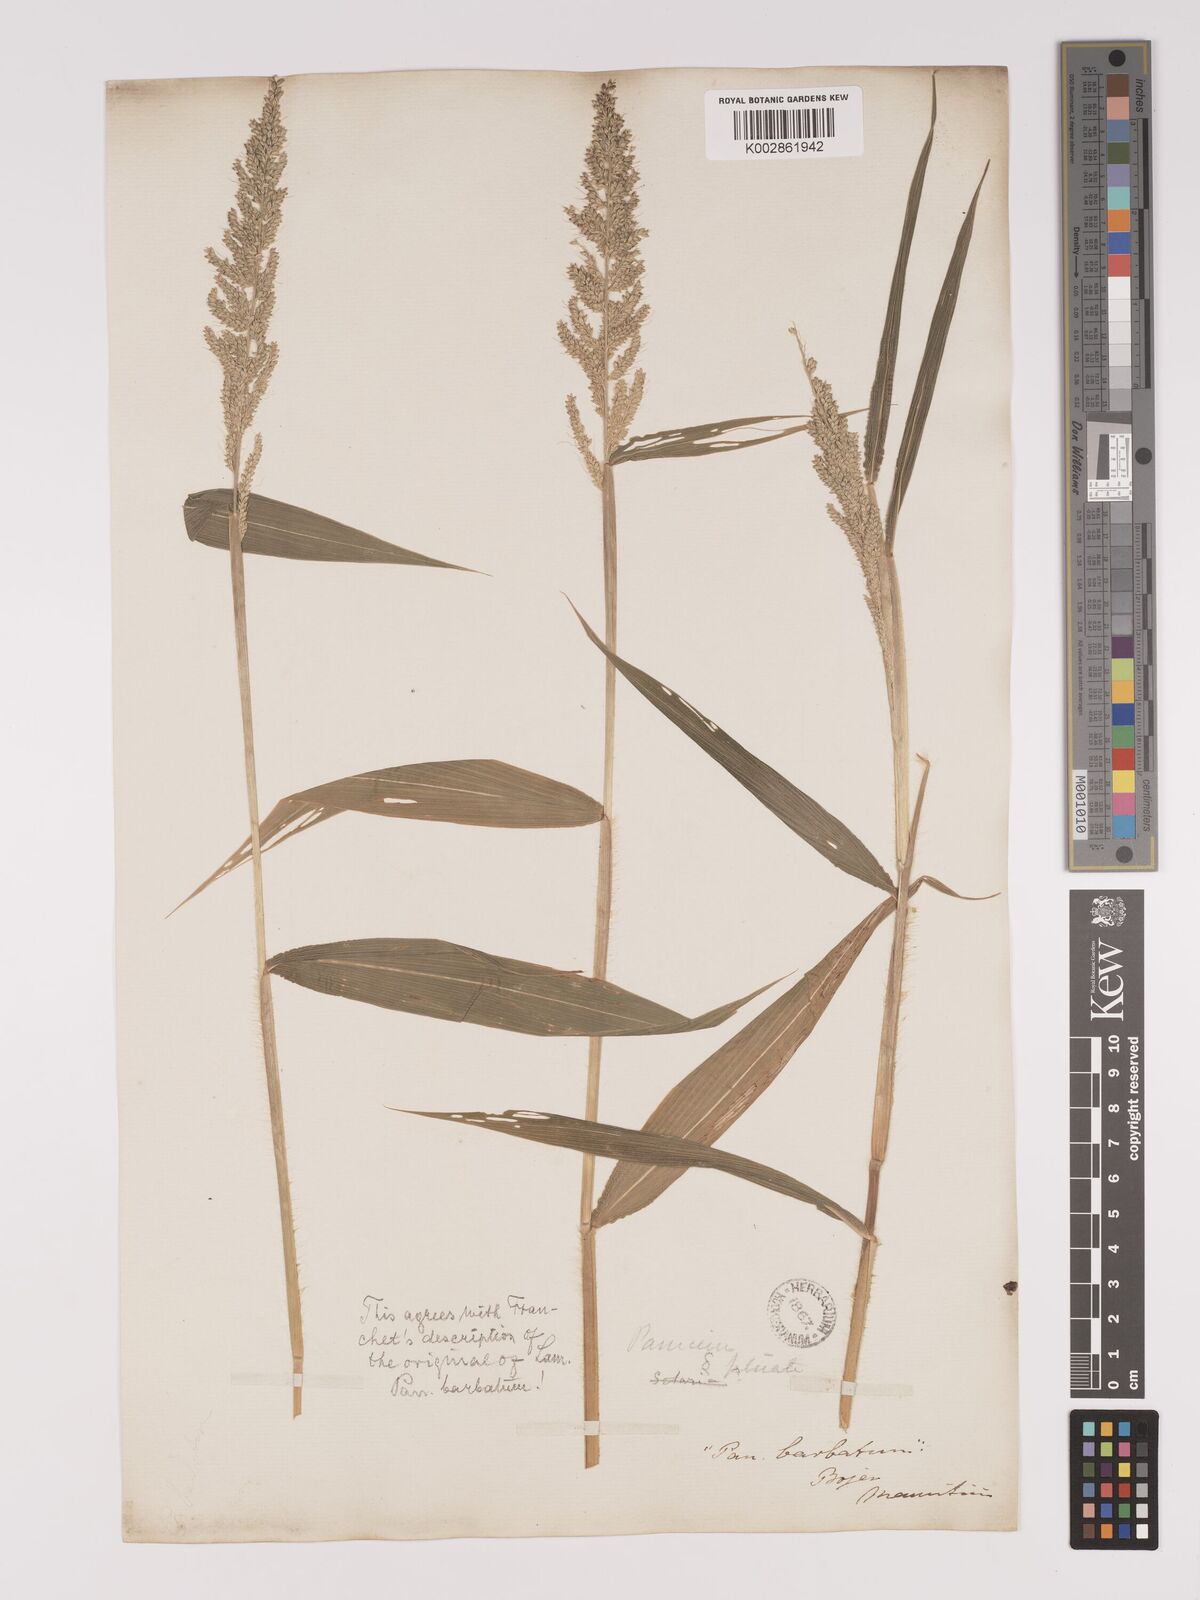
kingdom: Plantae
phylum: Tracheophyta
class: Liliopsida
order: Poales
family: Poaceae
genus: Setaria
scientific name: Setaria barbata
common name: East indian bristlegrass
